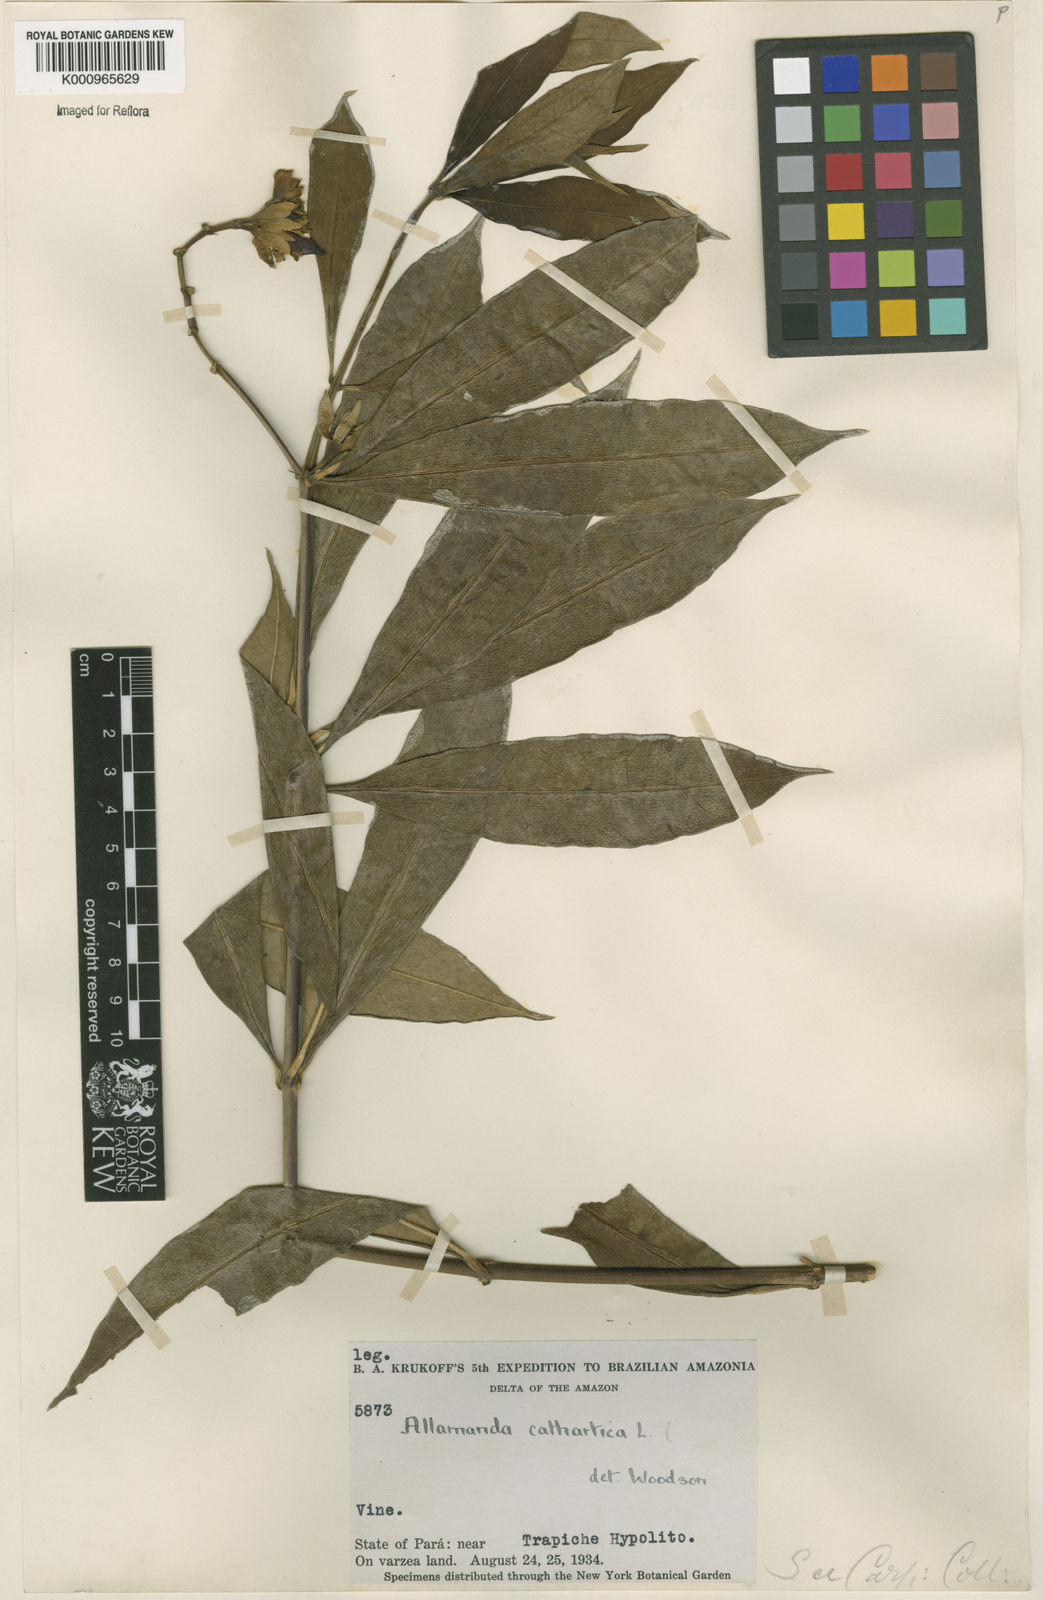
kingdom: Plantae
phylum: Tracheophyta
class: Magnoliopsida
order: Gentianales
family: Apocynaceae
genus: Allamanda
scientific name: Allamanda cathartica
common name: Golden trumpet
